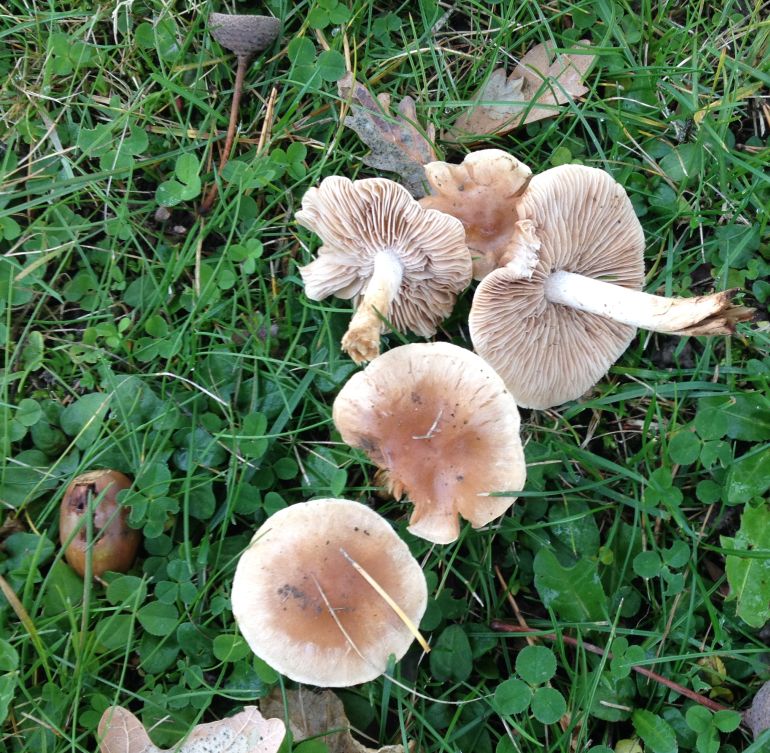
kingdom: Fungi
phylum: Basidiomycota
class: Agaricomycetes
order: Agaricales
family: Hymenogastraceae
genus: Hebeloma
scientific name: Hebeloma mesophaeum
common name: lerbrun tåreblad
